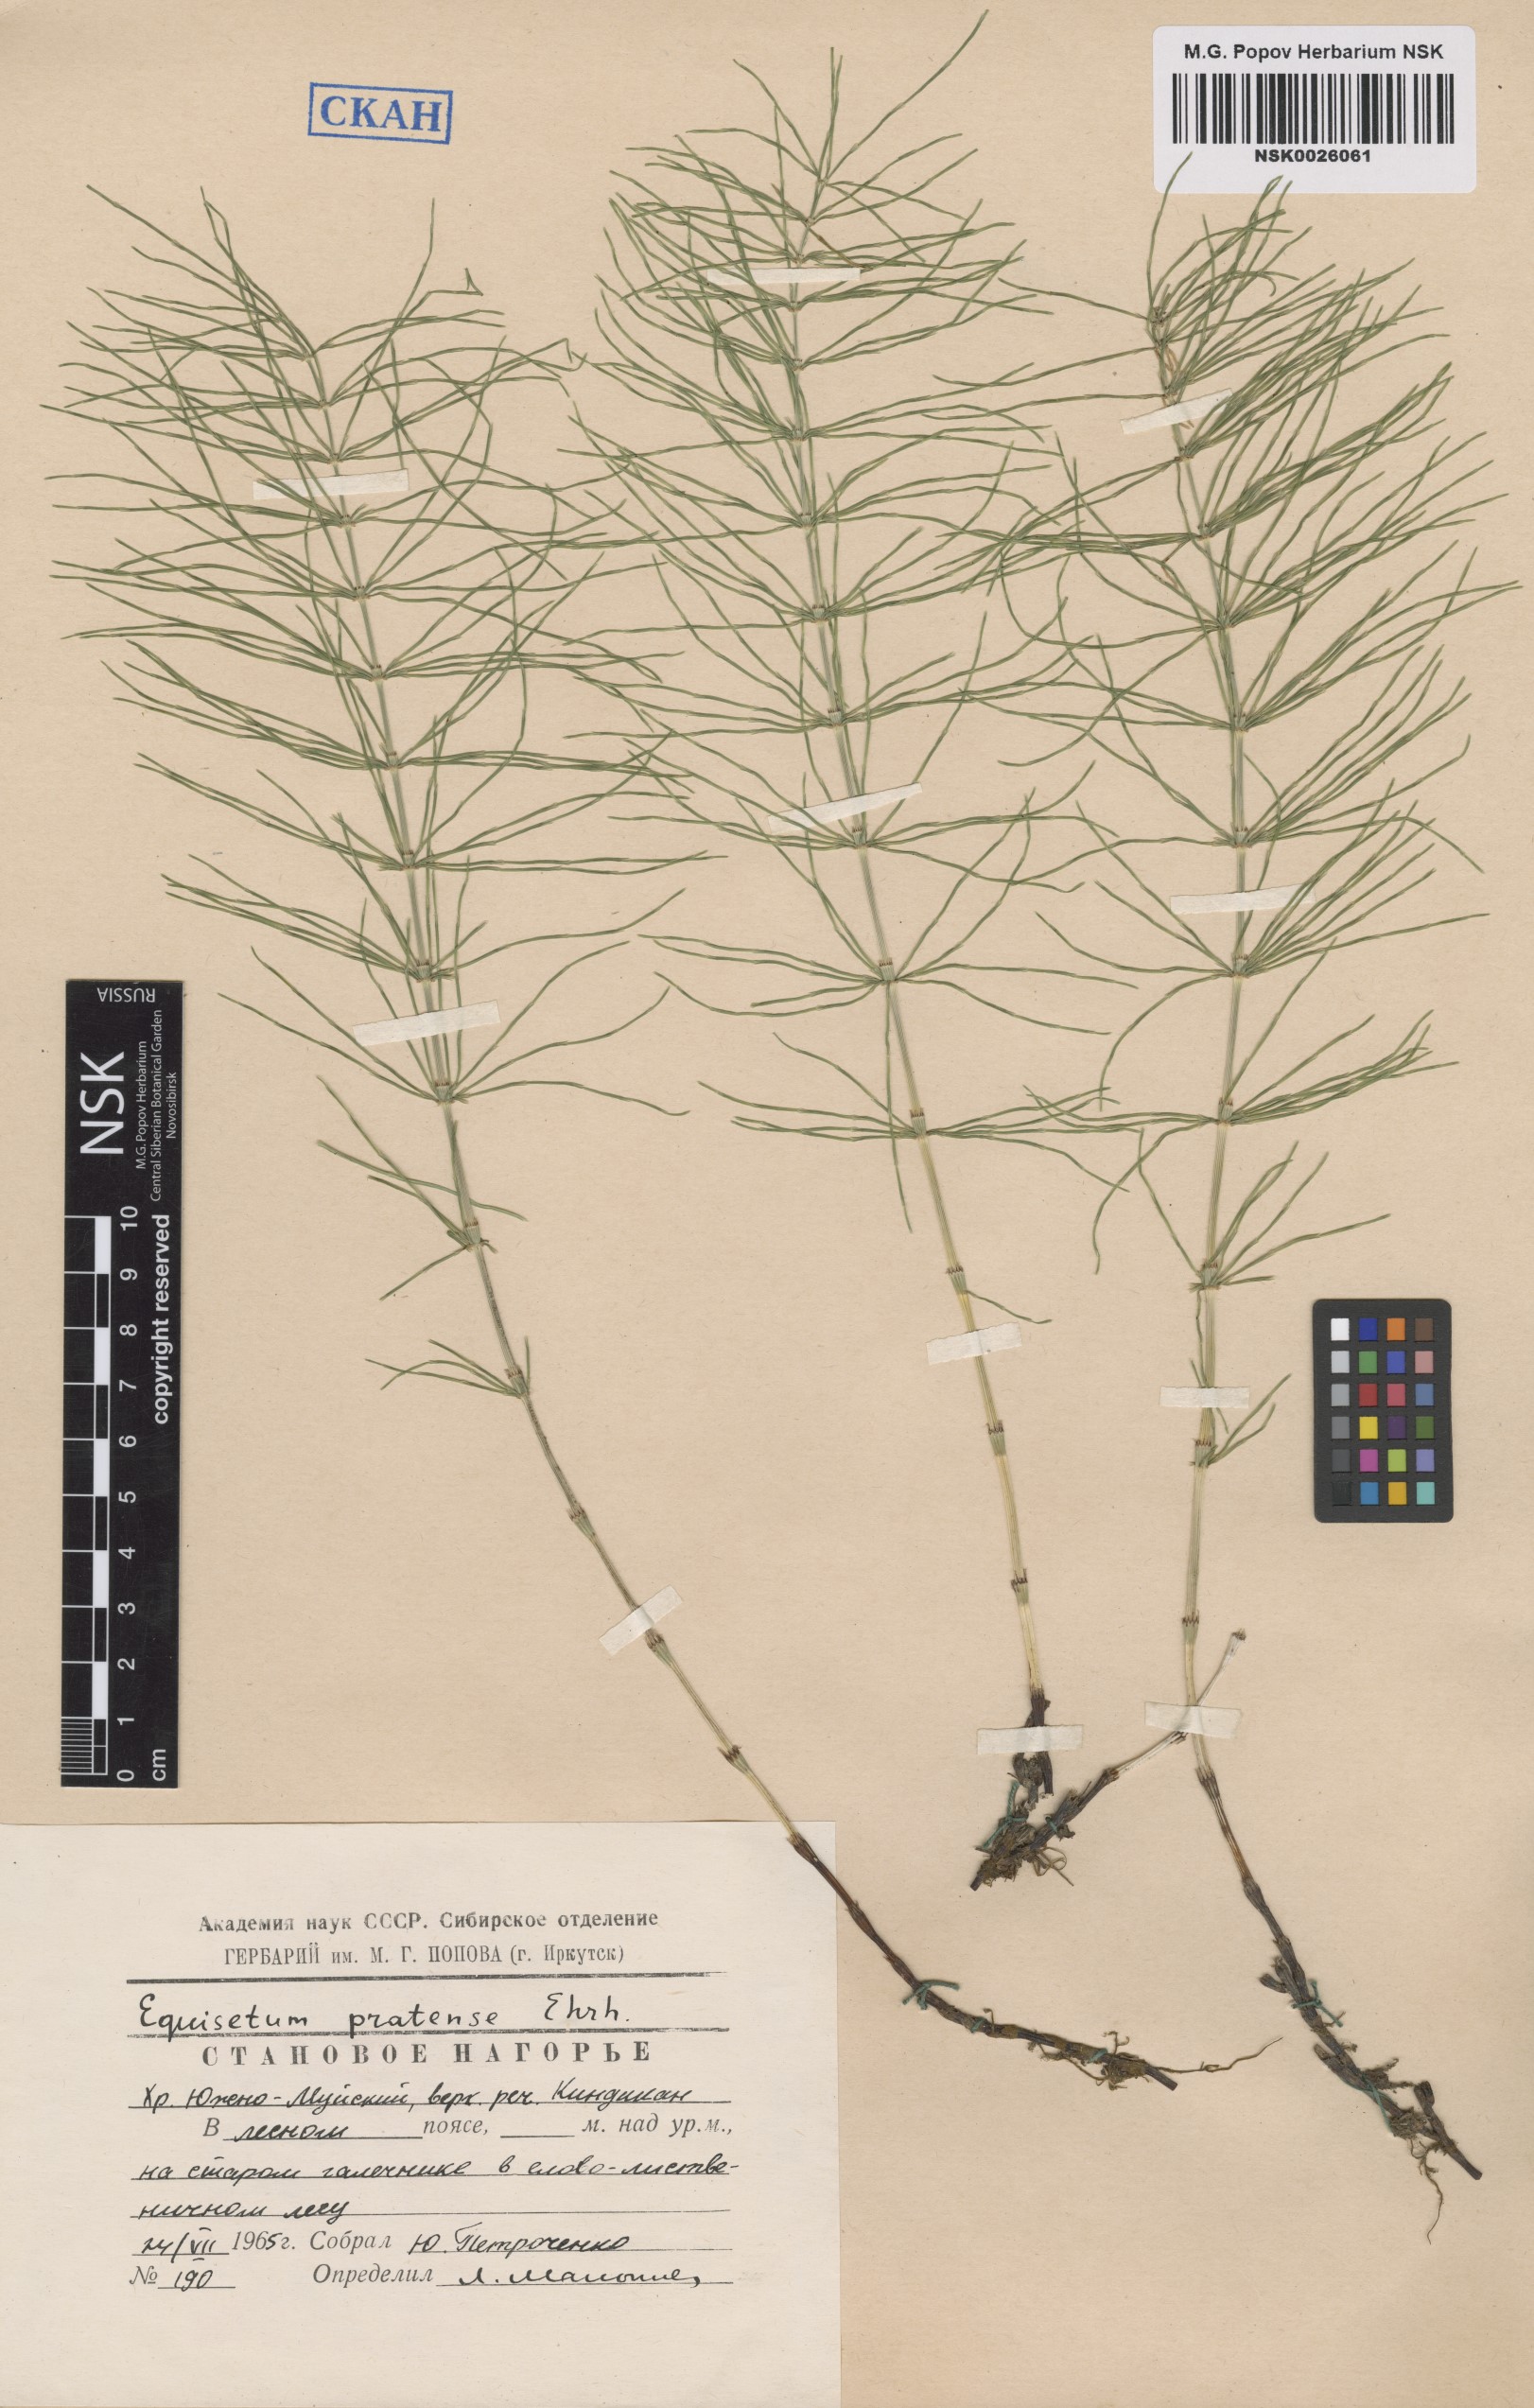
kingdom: Plantae
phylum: Tracheophyta
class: Polypodiopsida
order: Equisetales
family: Equisetaceae
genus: Equisetum
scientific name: Equisetum pratense
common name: Meadow horsetail
